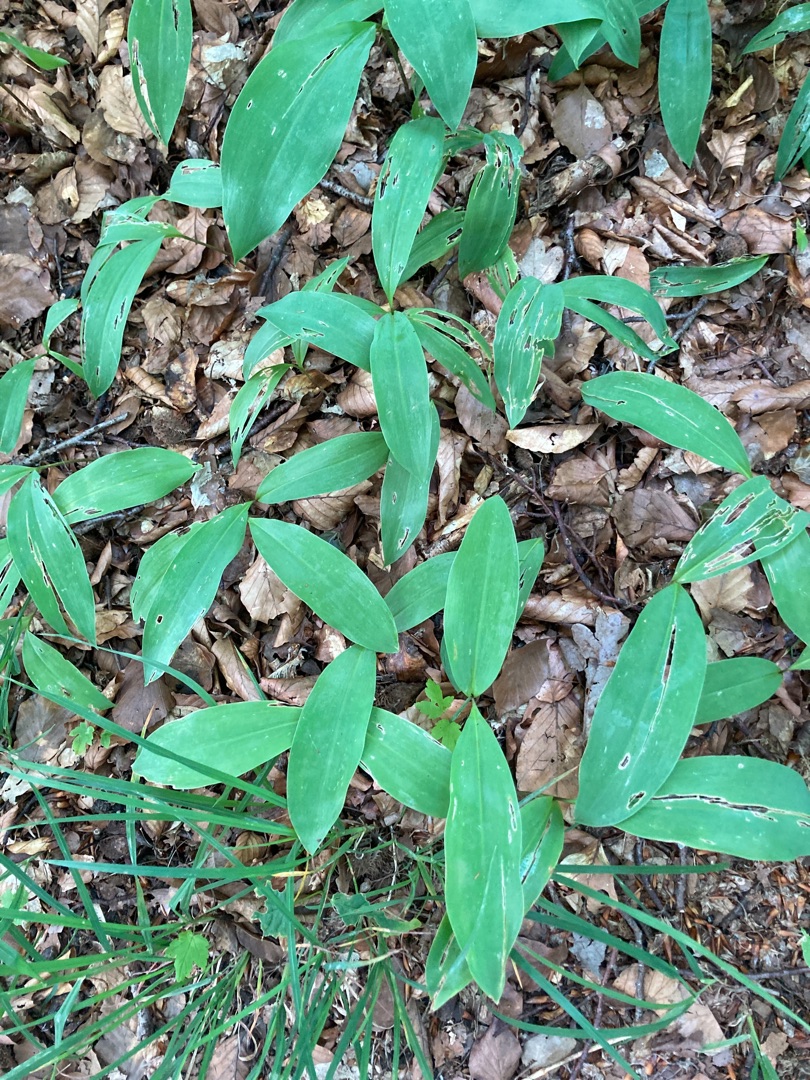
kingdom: Plantae
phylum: Tracheophyta
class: Liliopsida
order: Asparagales
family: Asparagaceae
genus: Convallaria
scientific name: Convallaria majalis
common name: Liljekonval
